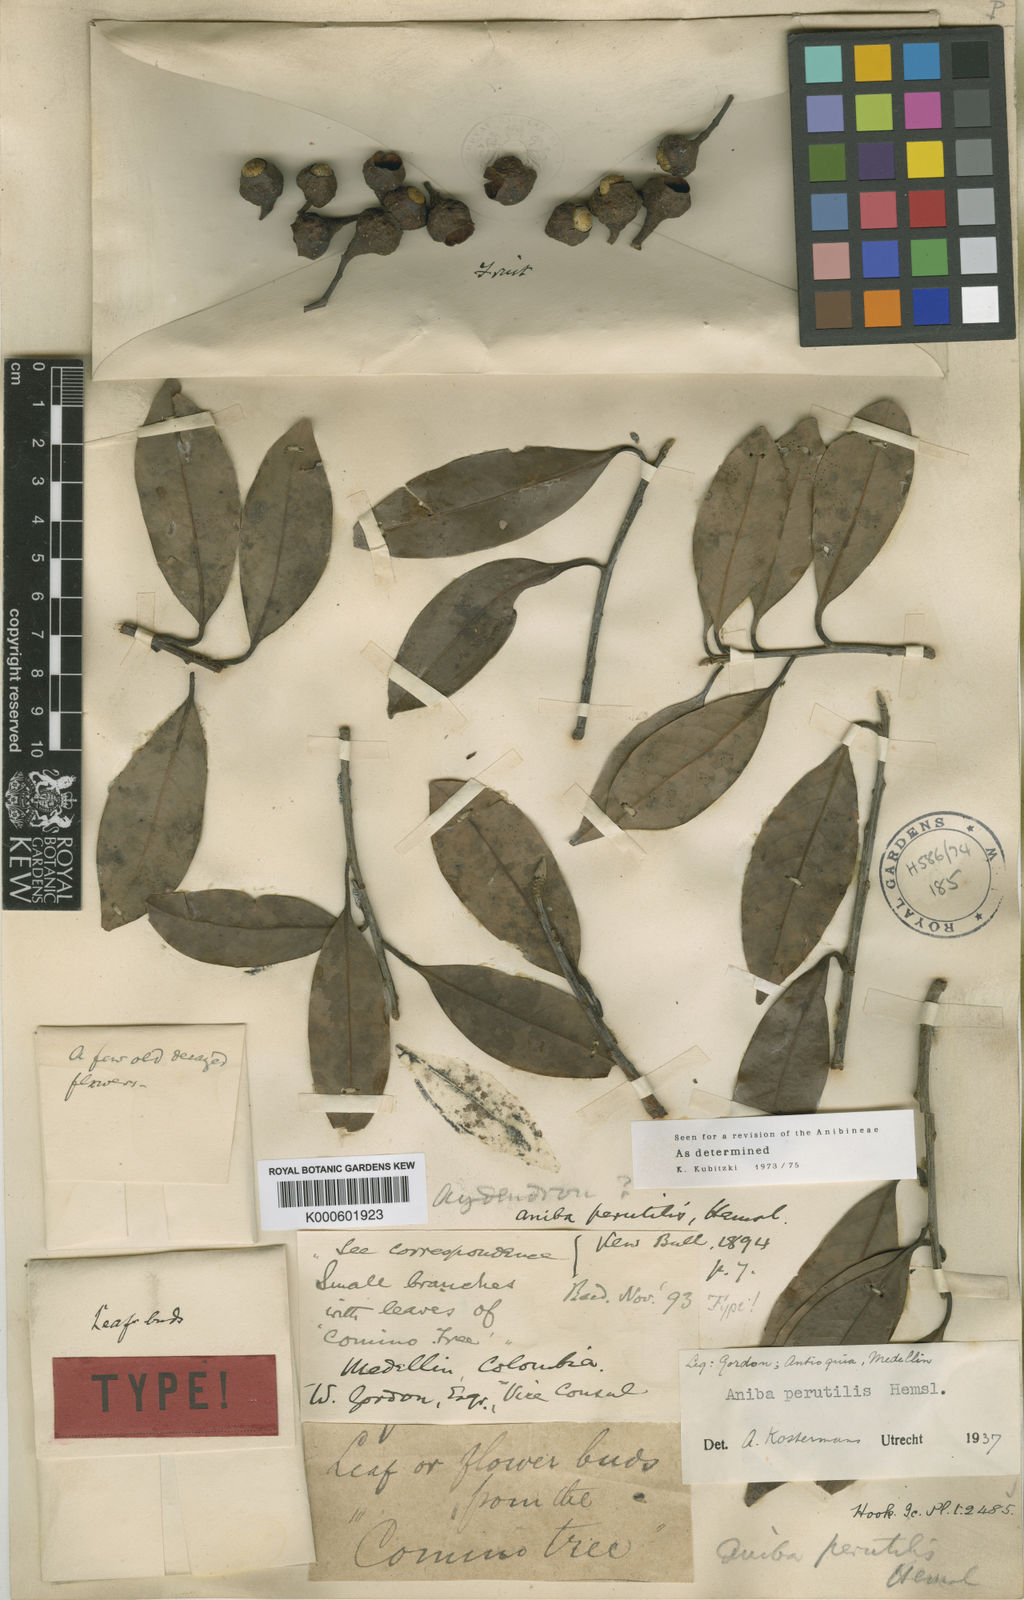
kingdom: Plantae
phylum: Tracheophyta
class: Magnoliopsida
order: Laurales
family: Lauraceae
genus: Aniba
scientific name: Aniba perutilis
